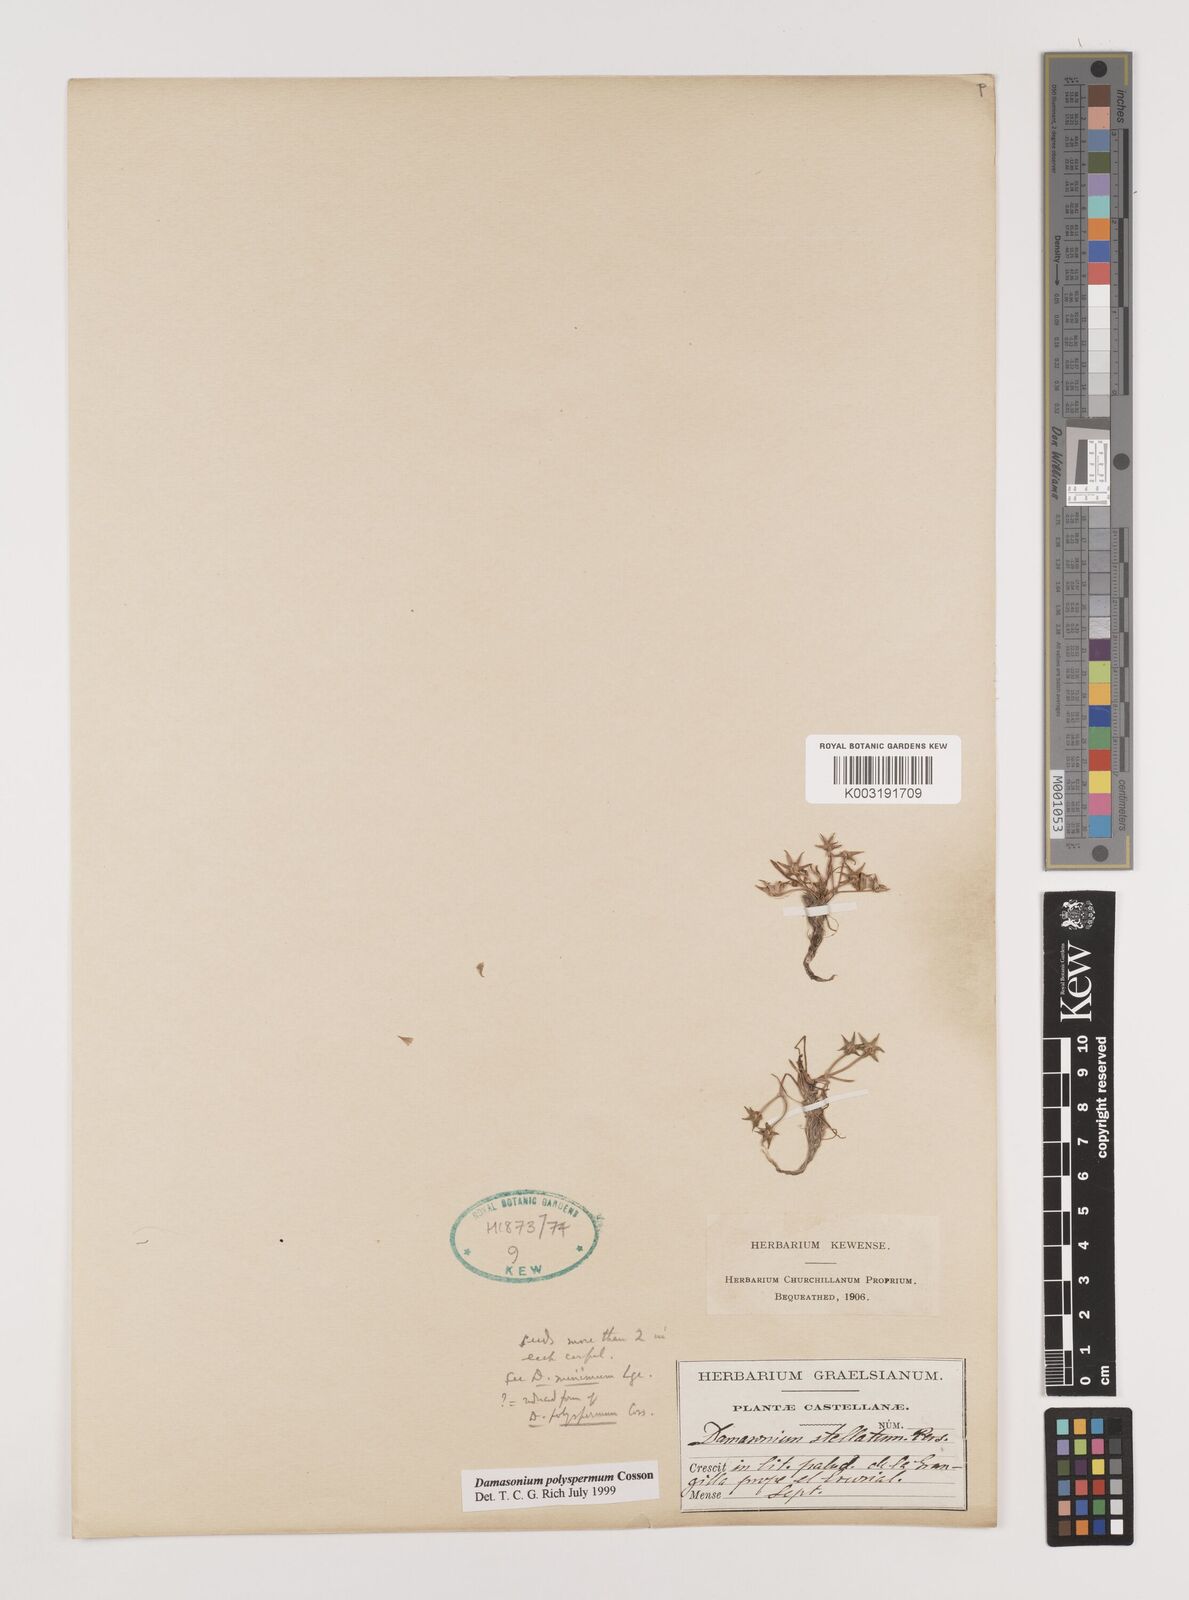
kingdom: Plantae
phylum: Tracheophyta
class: Liliopsida
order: Alismatales
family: Alismataceae
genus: Damasonium
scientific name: Damasonium polyspermum
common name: Starfruit
